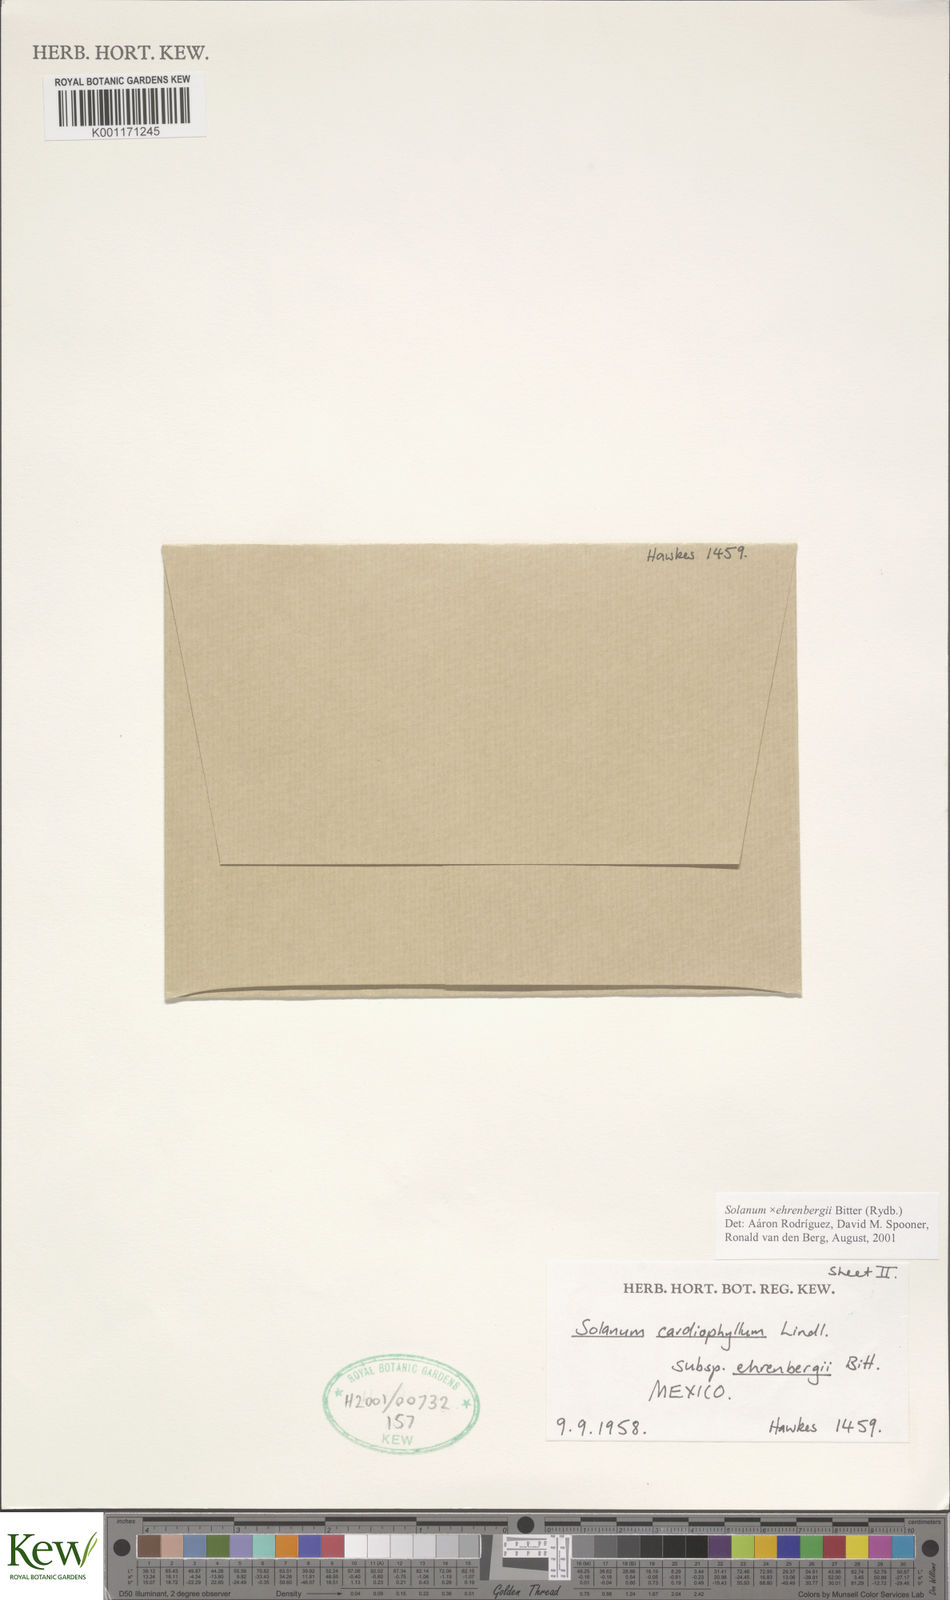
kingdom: Plantae
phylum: Tracheophyta
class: Magnoliopsida
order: Solanales
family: Solanaceae
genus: Solanum
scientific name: Solanum edinense
